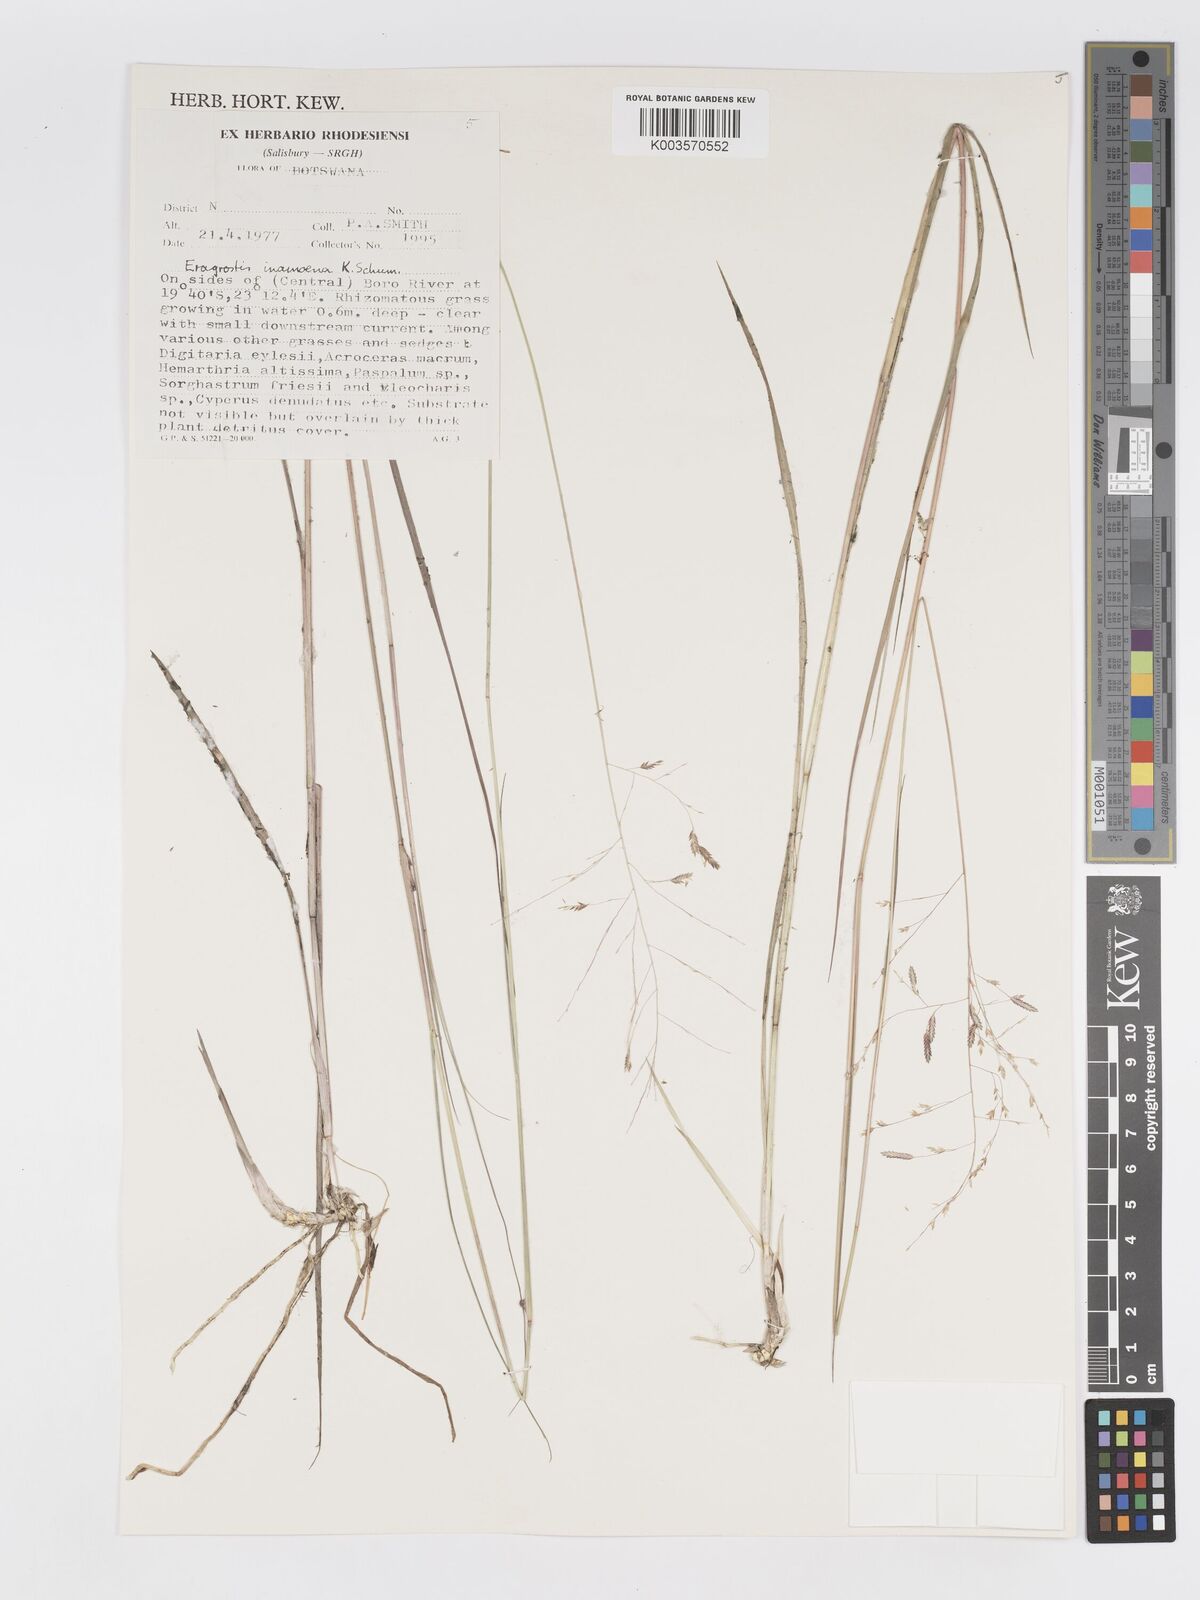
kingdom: Plantae
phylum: Tracheophyta
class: Liliopsida
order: Poales
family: Poaceae
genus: Eragrostis
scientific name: Eragrostis inamoena
